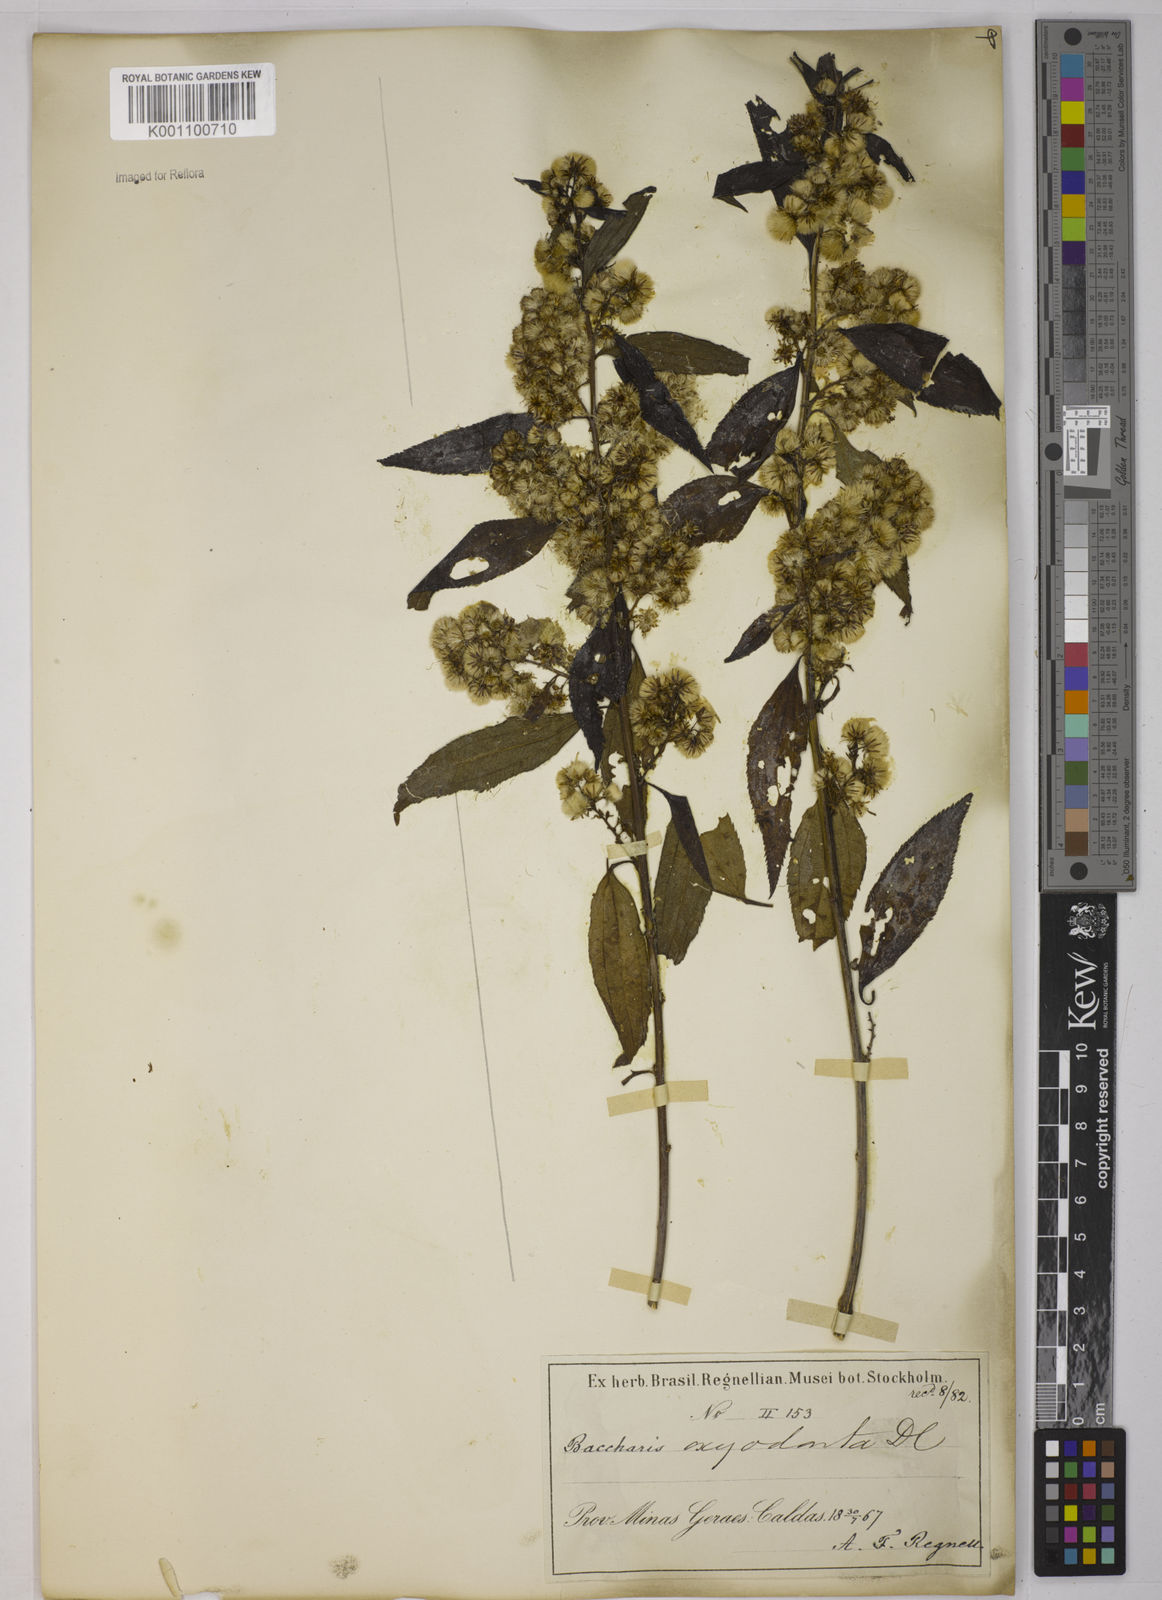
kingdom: Plantae
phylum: Tracheophyta
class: Magnoliopsida
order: Asterales
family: Asteraceae
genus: Baccharis
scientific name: Baccharis oxyodonta
